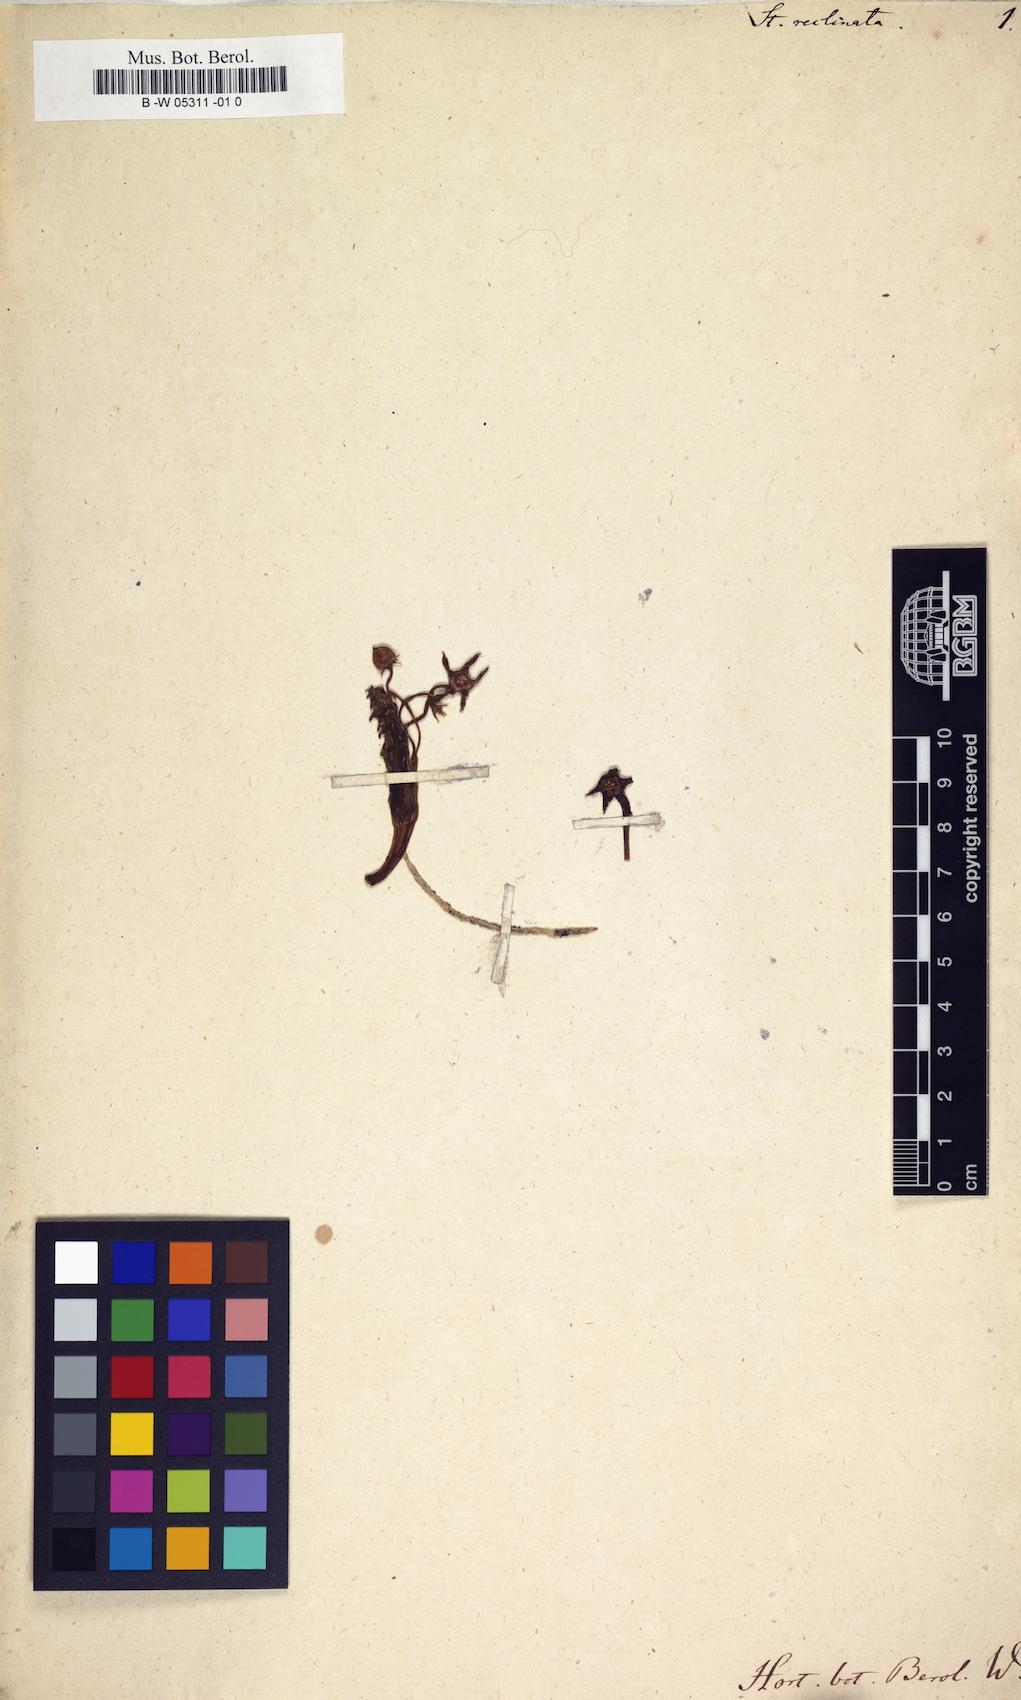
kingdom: Plantae
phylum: Tracheophyta
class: Magnoliopsida
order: Gentianales
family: Apocynaceae
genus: Ceropegia
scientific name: Ceropegia caespitosa
